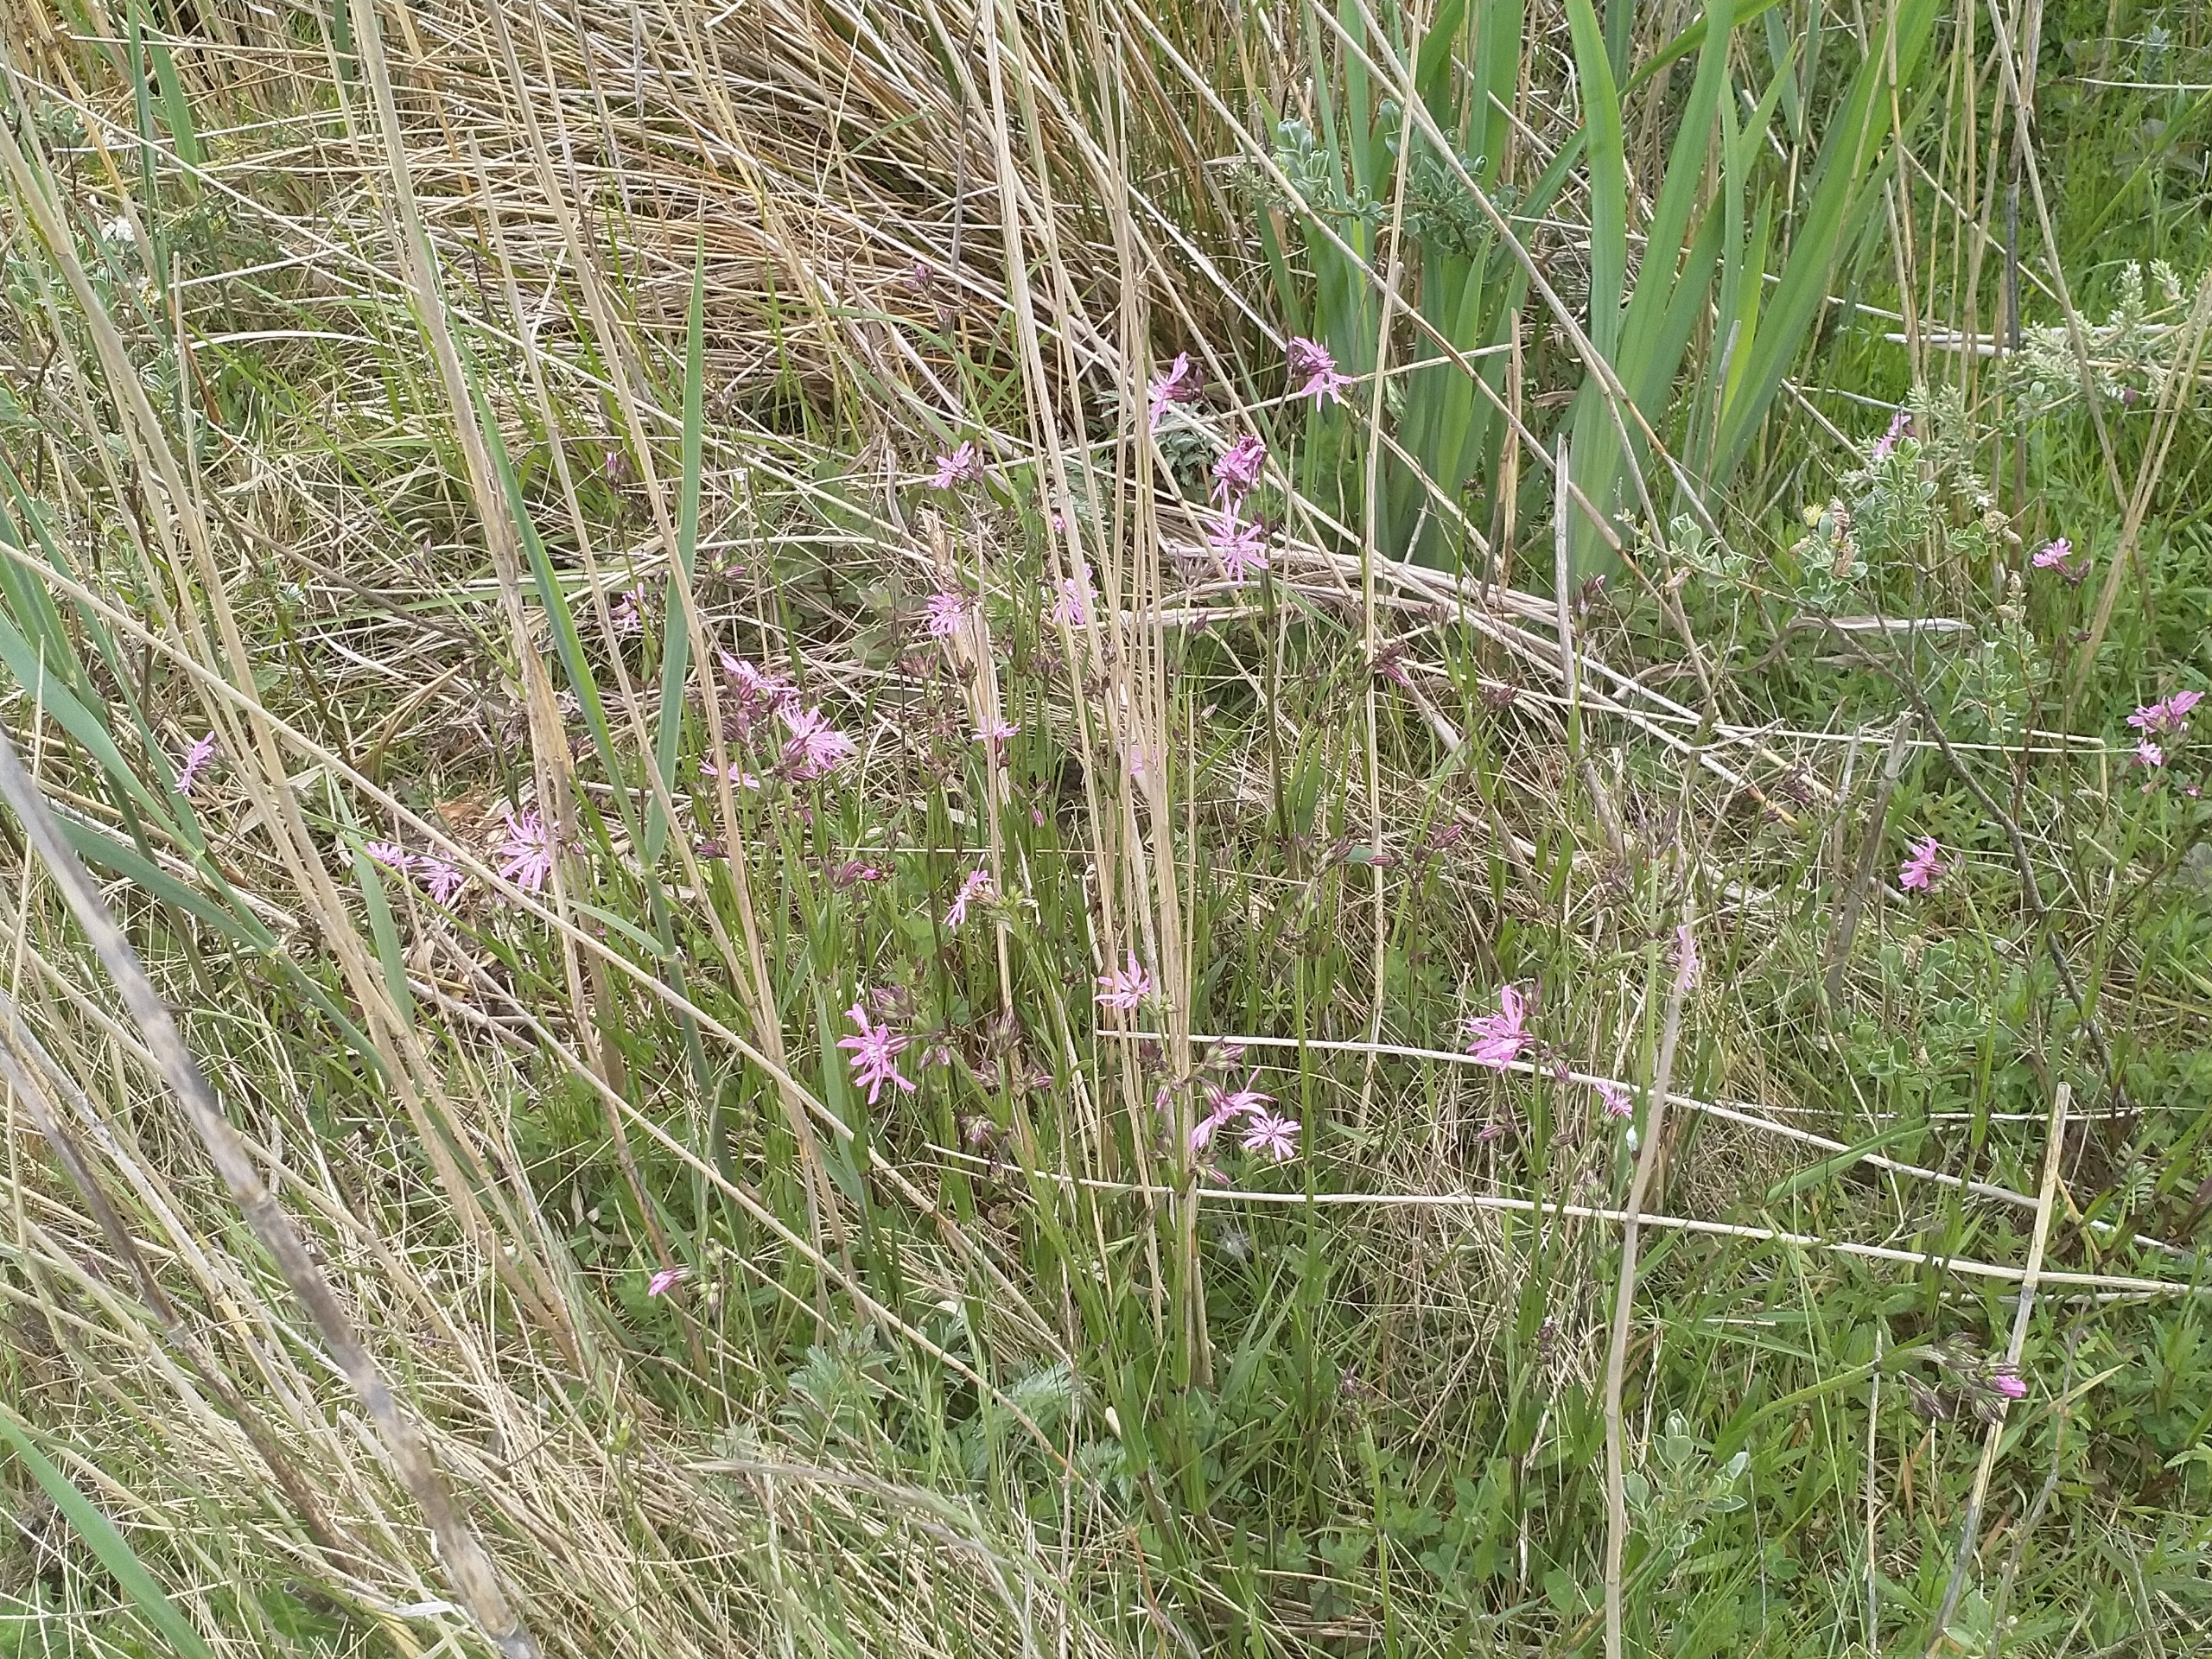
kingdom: Plantae
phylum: Tracheophyta
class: Magnoliopsida
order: Caryophyllales
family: Caryophyllaceae
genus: Silene
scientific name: Silene flos-cuculi
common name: Trævlekrone
